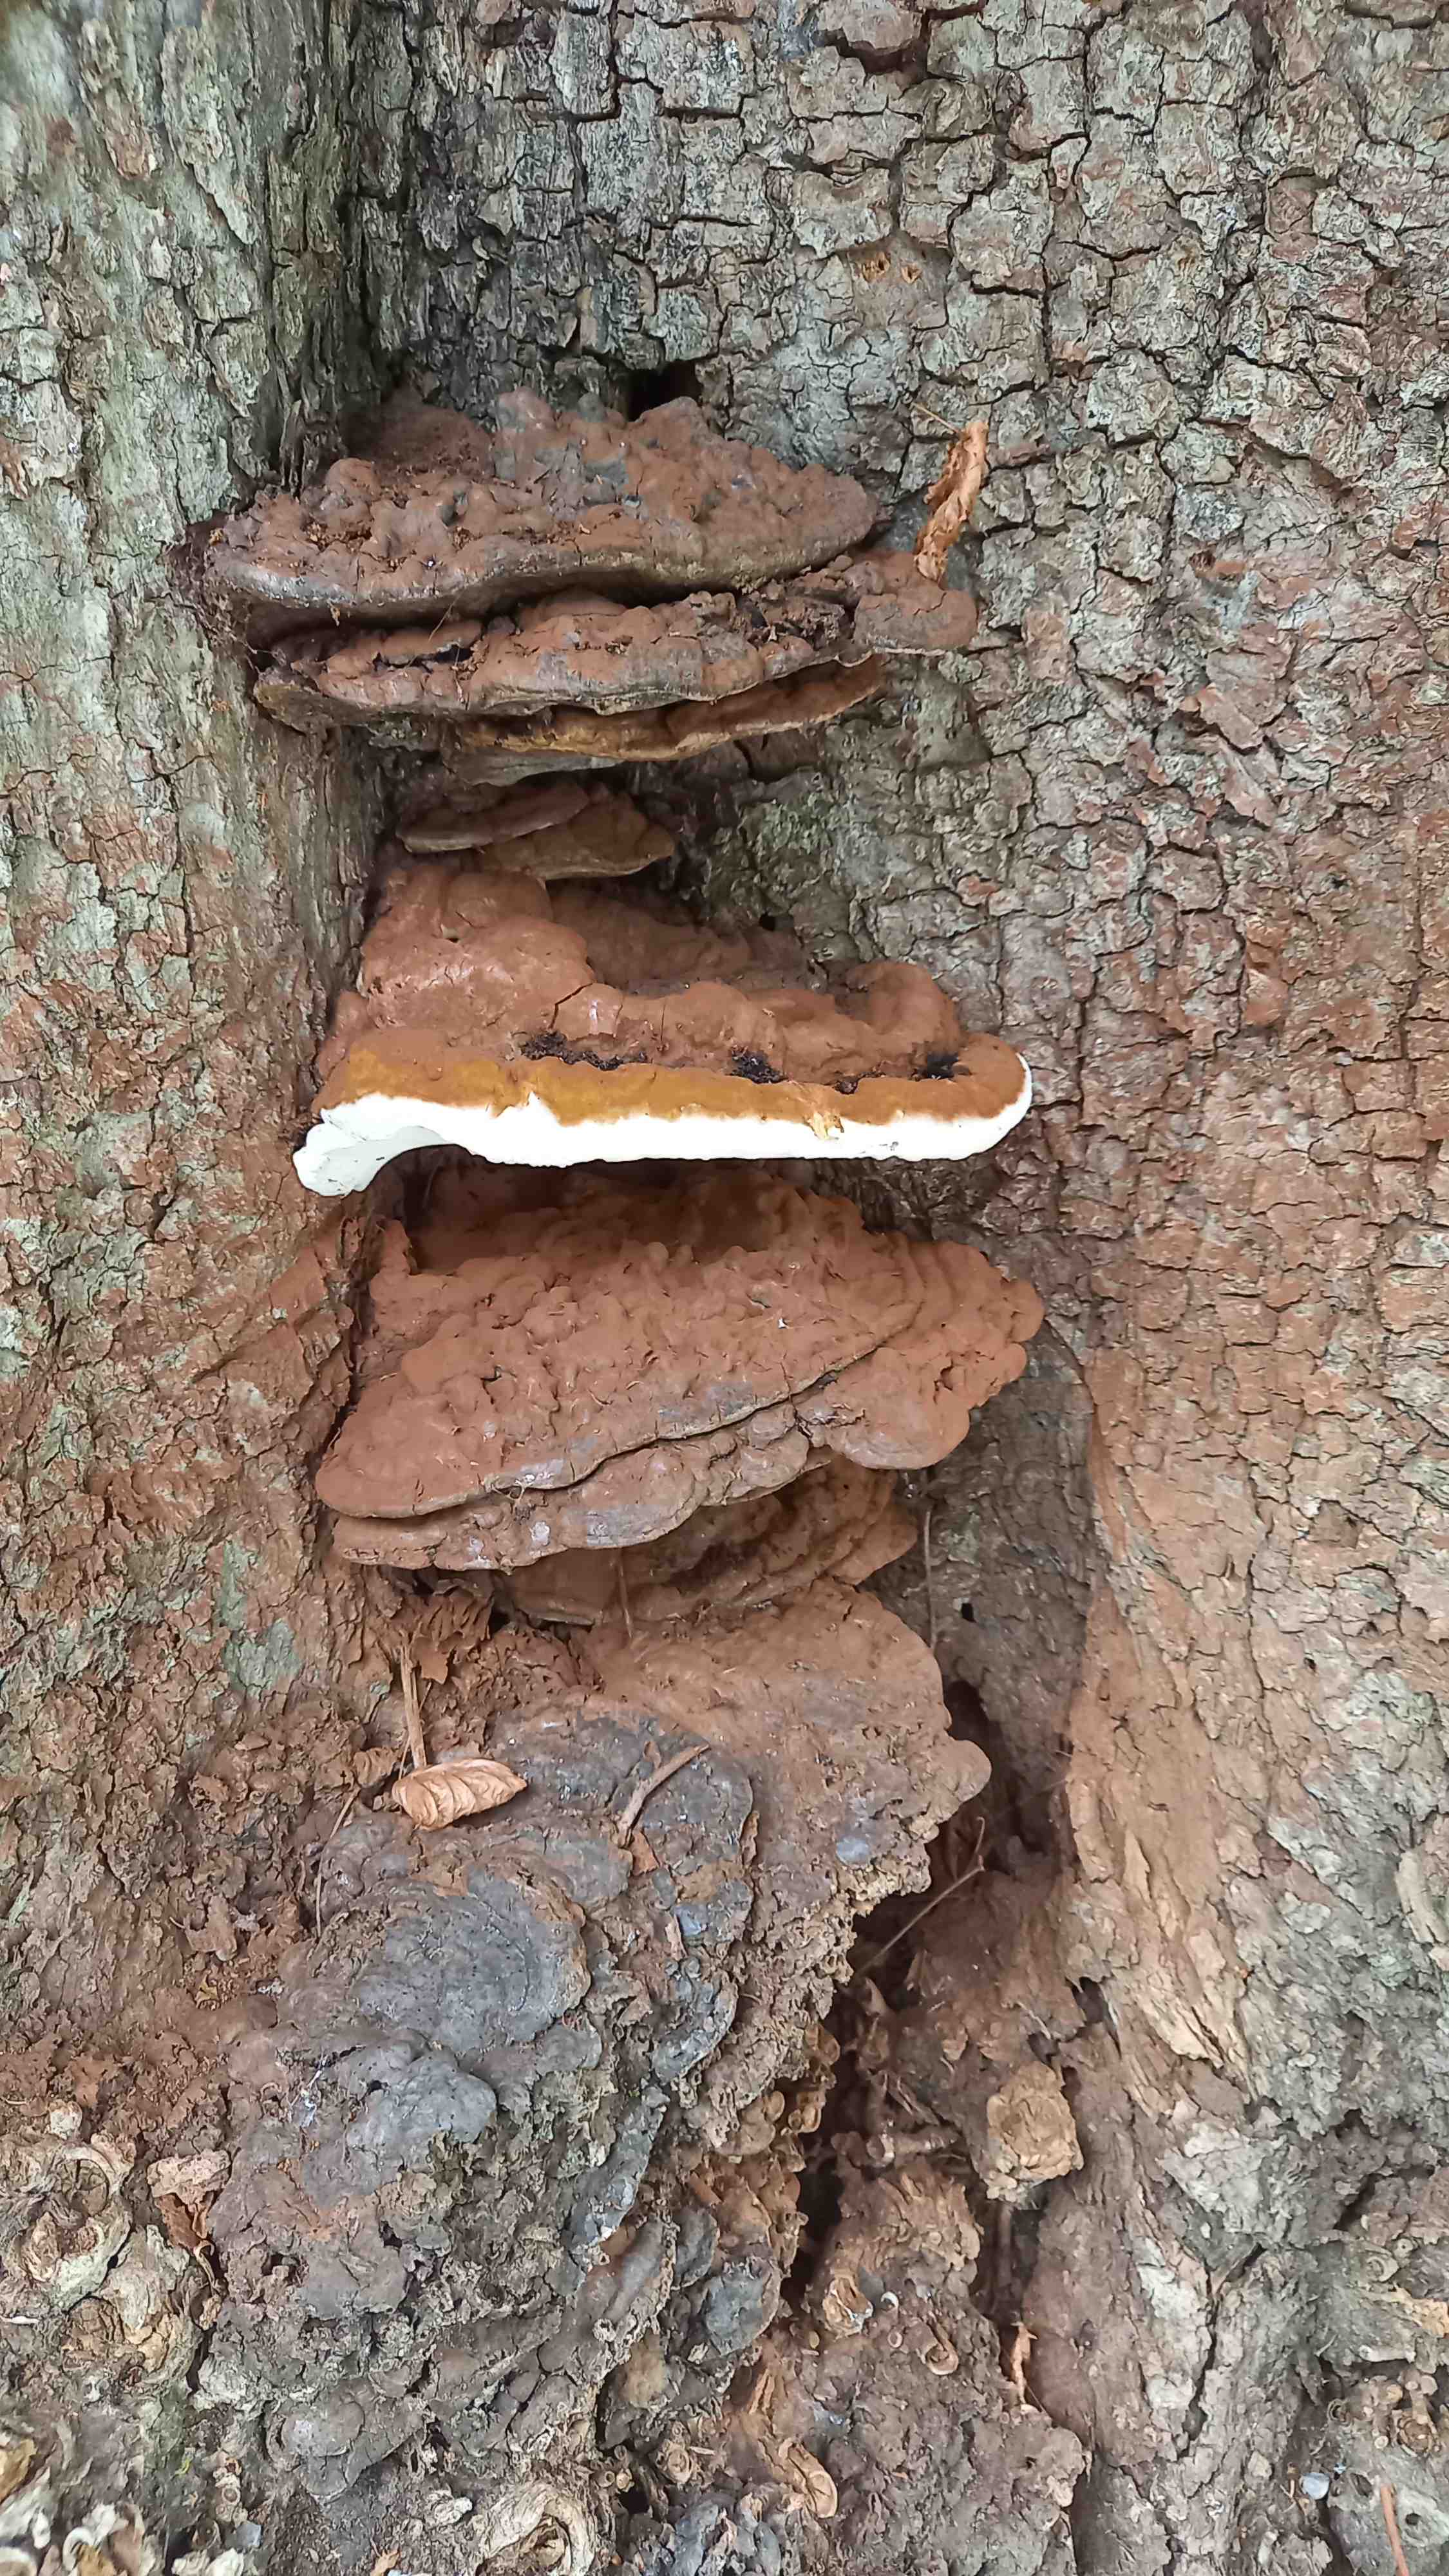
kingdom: Fungi
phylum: Basidiomycota
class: Agaricomycetes
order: Polyporales
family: Polyporaceae
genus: Ganoderma
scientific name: Ganoderma applanatum
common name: flad lakporesvamp
